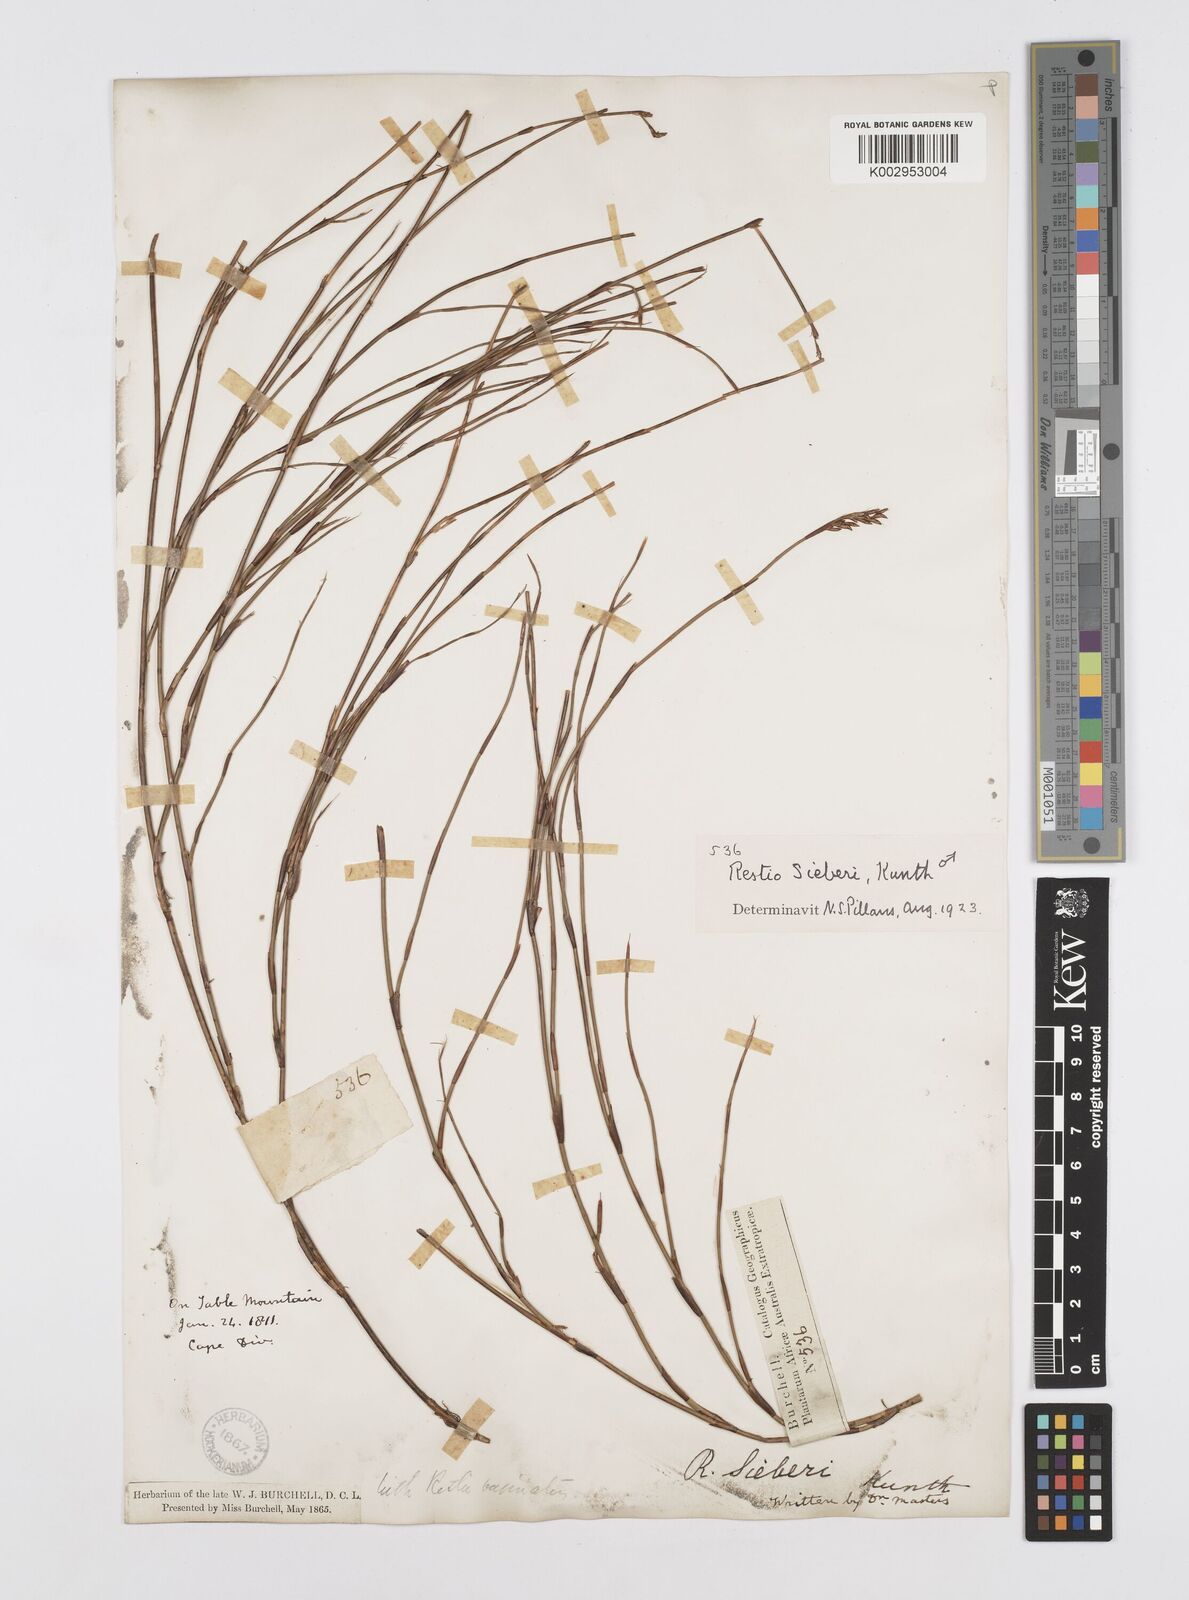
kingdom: Plantae
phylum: Tracheophyta
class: Liliopsida
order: Poales
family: Restionaceae
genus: Restio
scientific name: Restio sieberi
